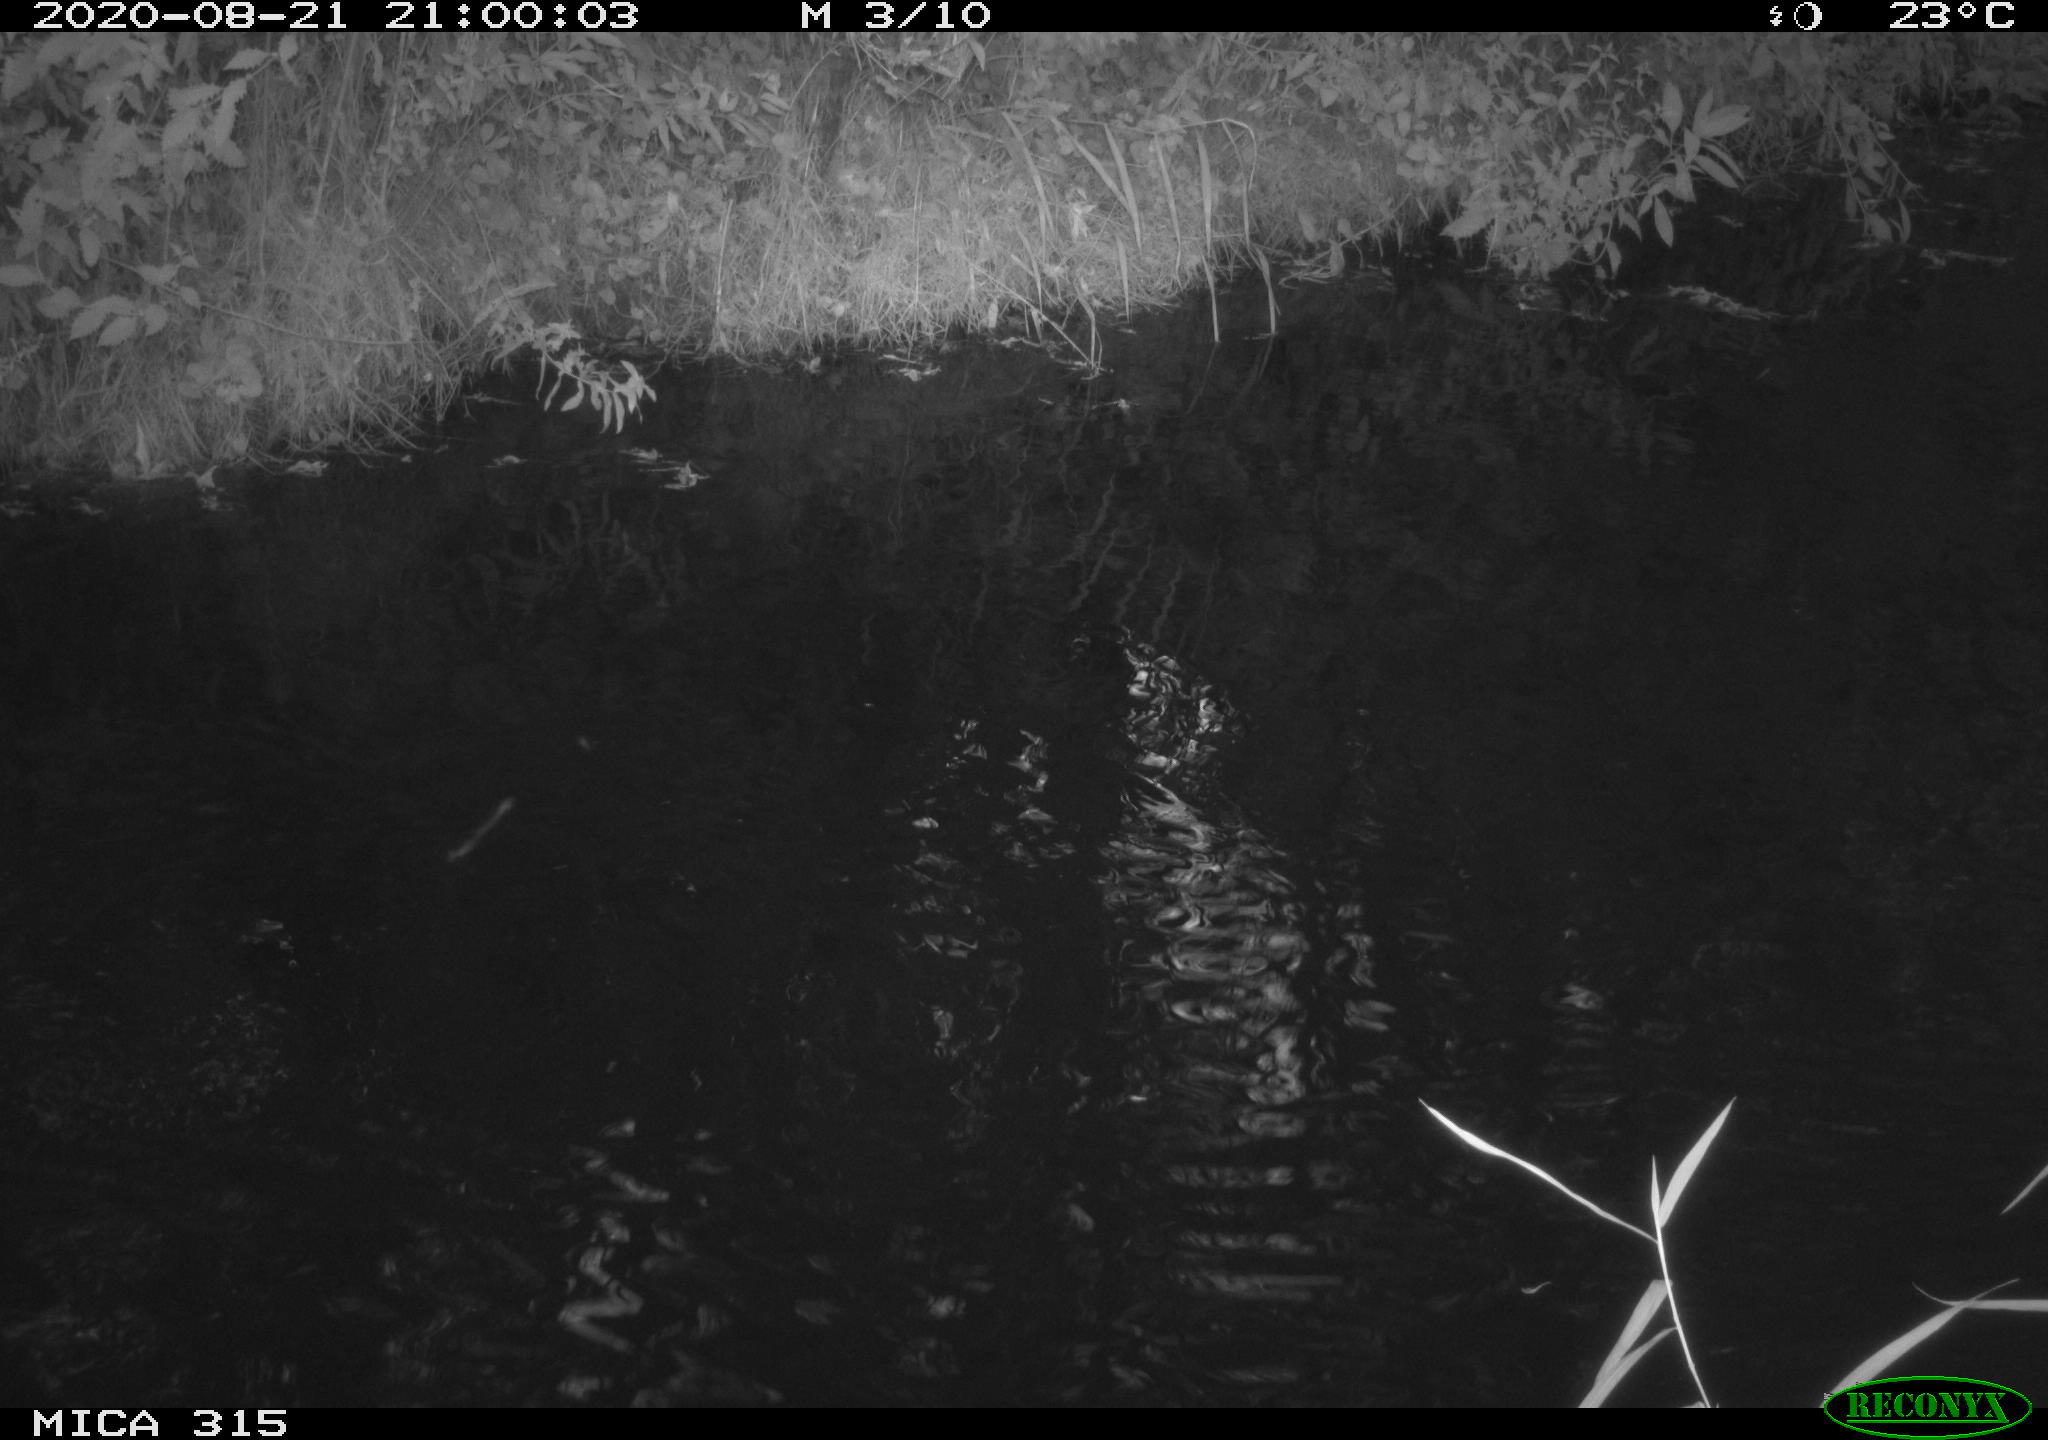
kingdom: Animalia
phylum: Chordata
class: Aves
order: Anseriformes
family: Anatidae
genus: Anas
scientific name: Anas platyrhynchos
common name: Mallard
